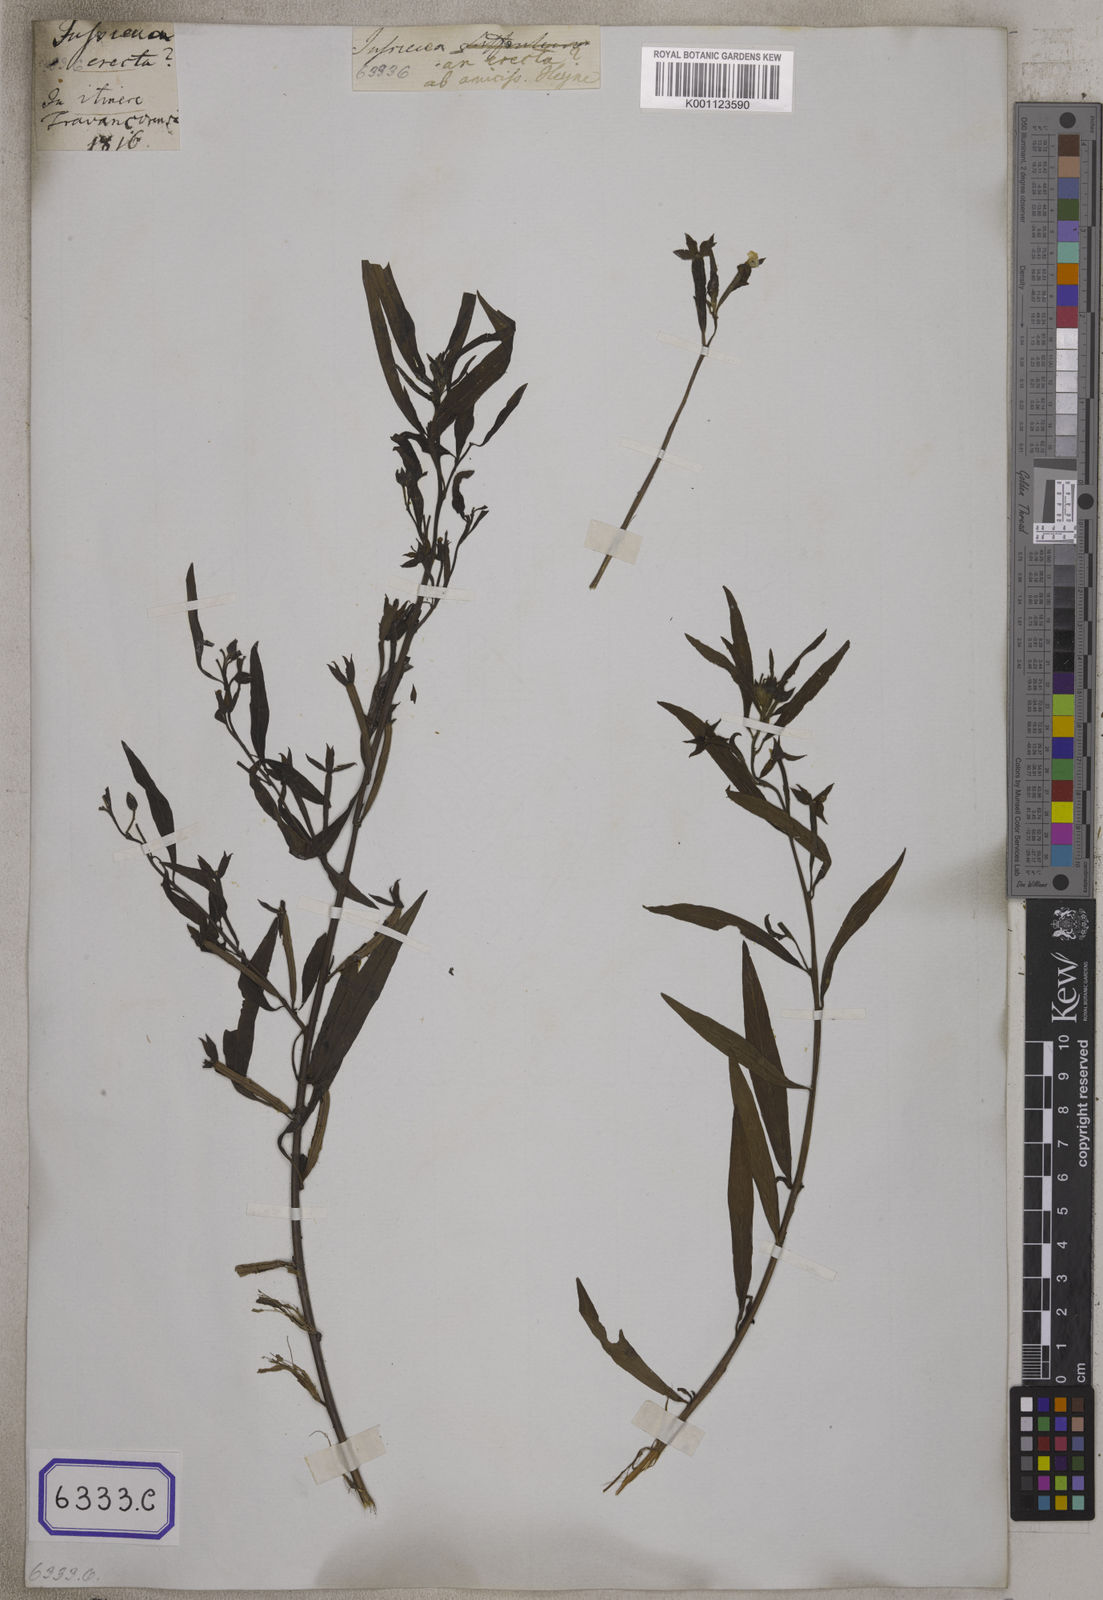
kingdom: Plantae
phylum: Tracheophyta
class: Magnoliopsida
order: Myrtales
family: Onagraceae
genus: Ludwigia
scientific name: Ludwigia octovalvis
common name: Water-primrose
